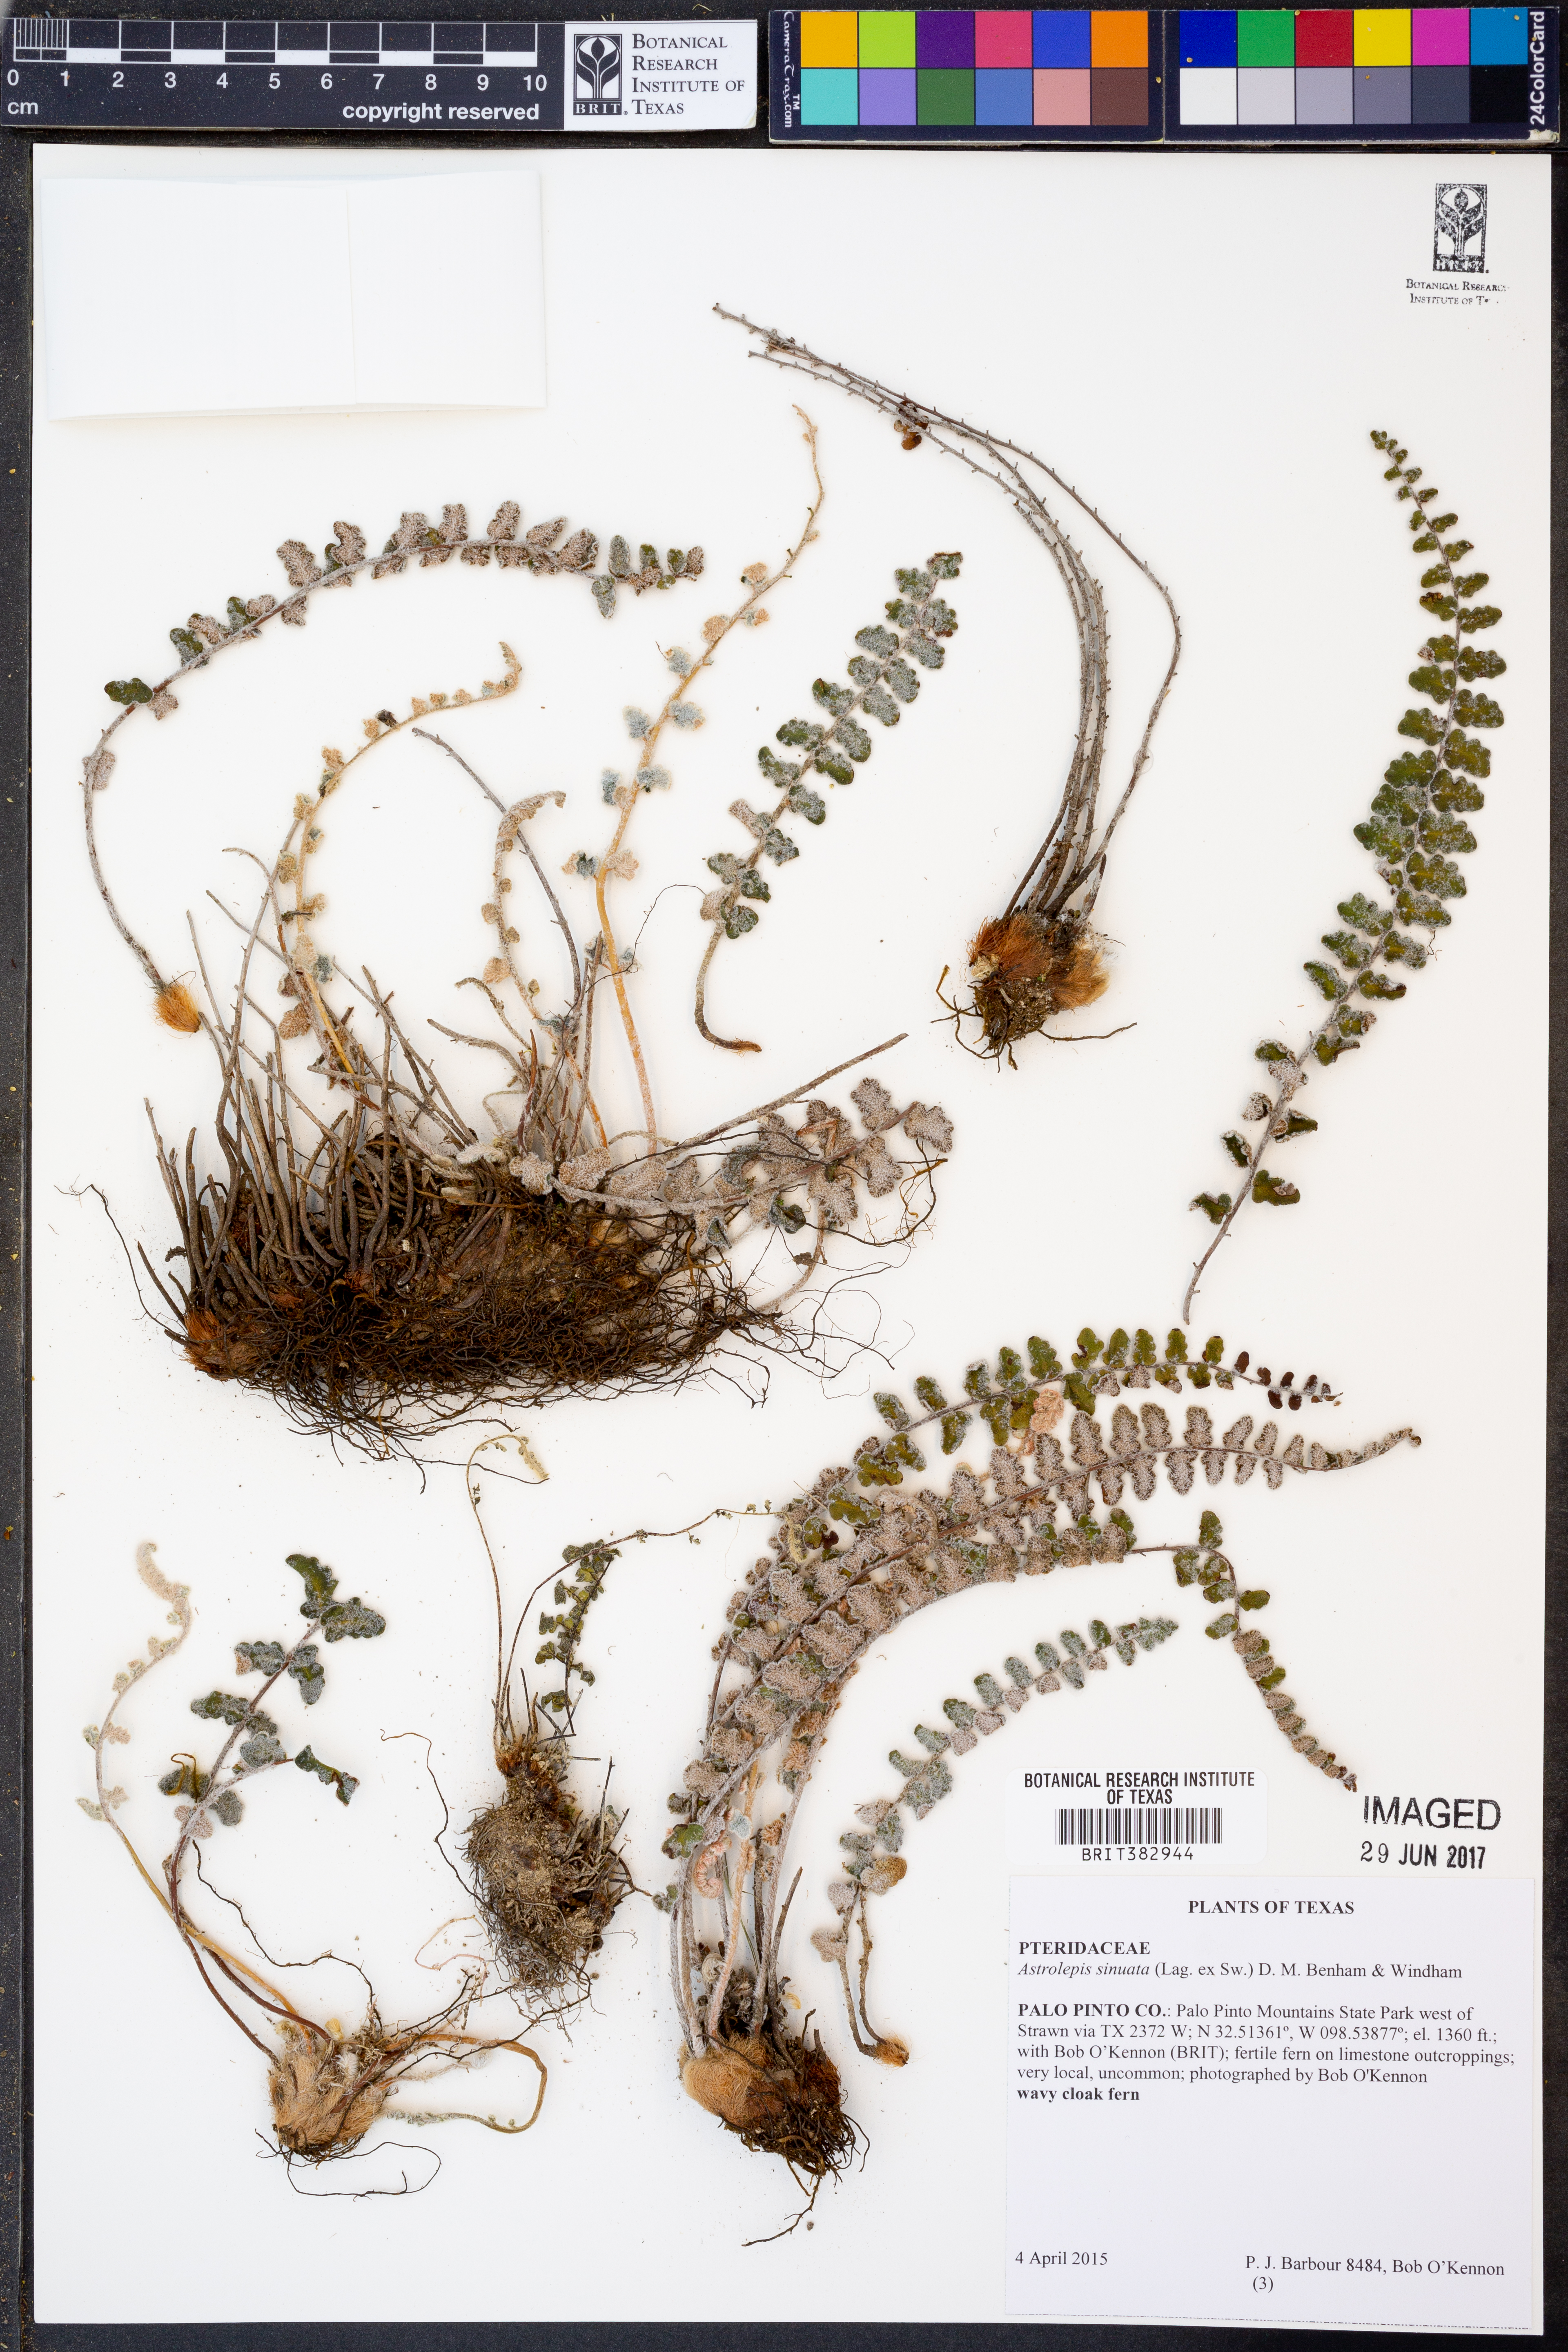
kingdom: Plantae
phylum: Tracheophyta
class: Polypodiopsida
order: Polypodiales
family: Pteridaceae
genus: Astrolepis
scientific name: Astrolepis sinuata
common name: Wavy scaly cloakfern
